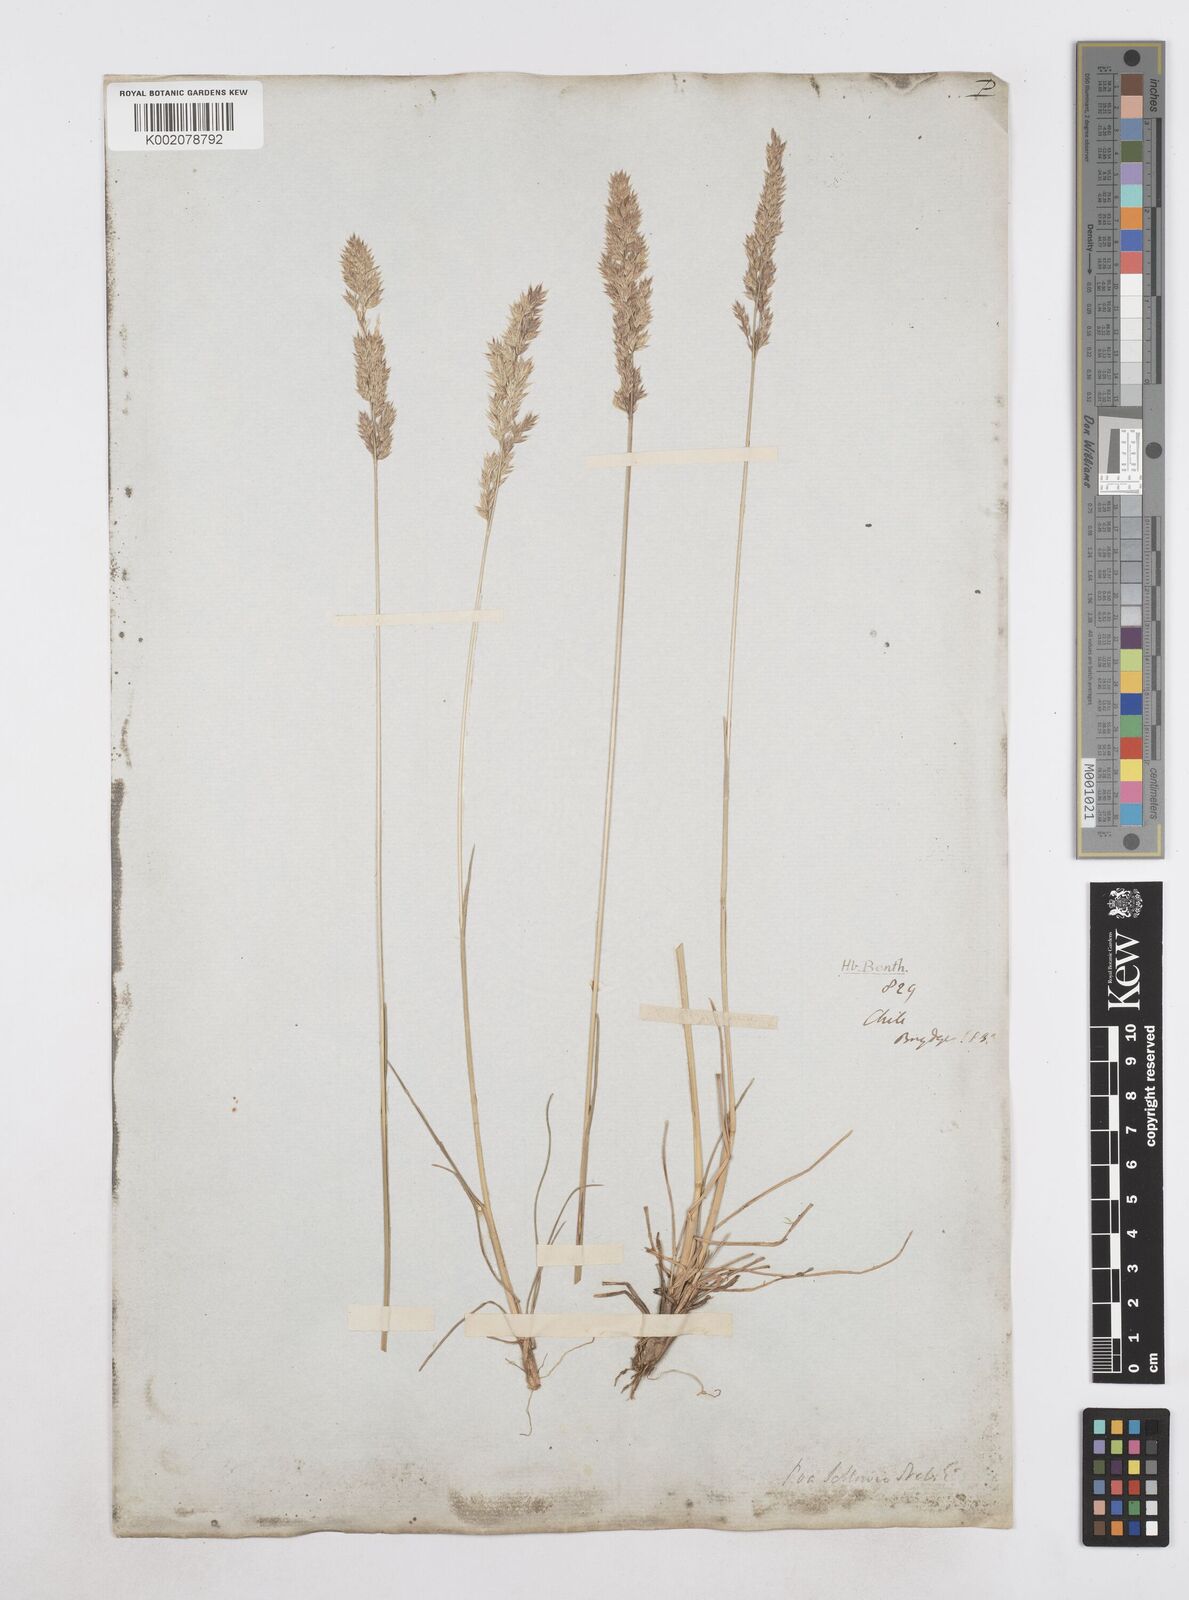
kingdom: Plantae
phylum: Tracheophyta
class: Liliopsida
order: Poales
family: Poaceae
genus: Poa
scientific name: Poa
